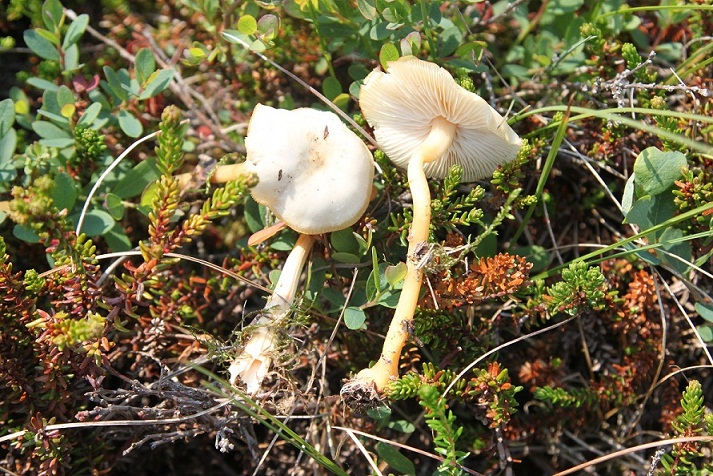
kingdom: Fungi
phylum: Basidiomycota
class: Agaricomycetes
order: Agaricales
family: Omphalotaceae
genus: Gymnopus
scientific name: Gymnopus aquosus
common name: bleg fladhat
